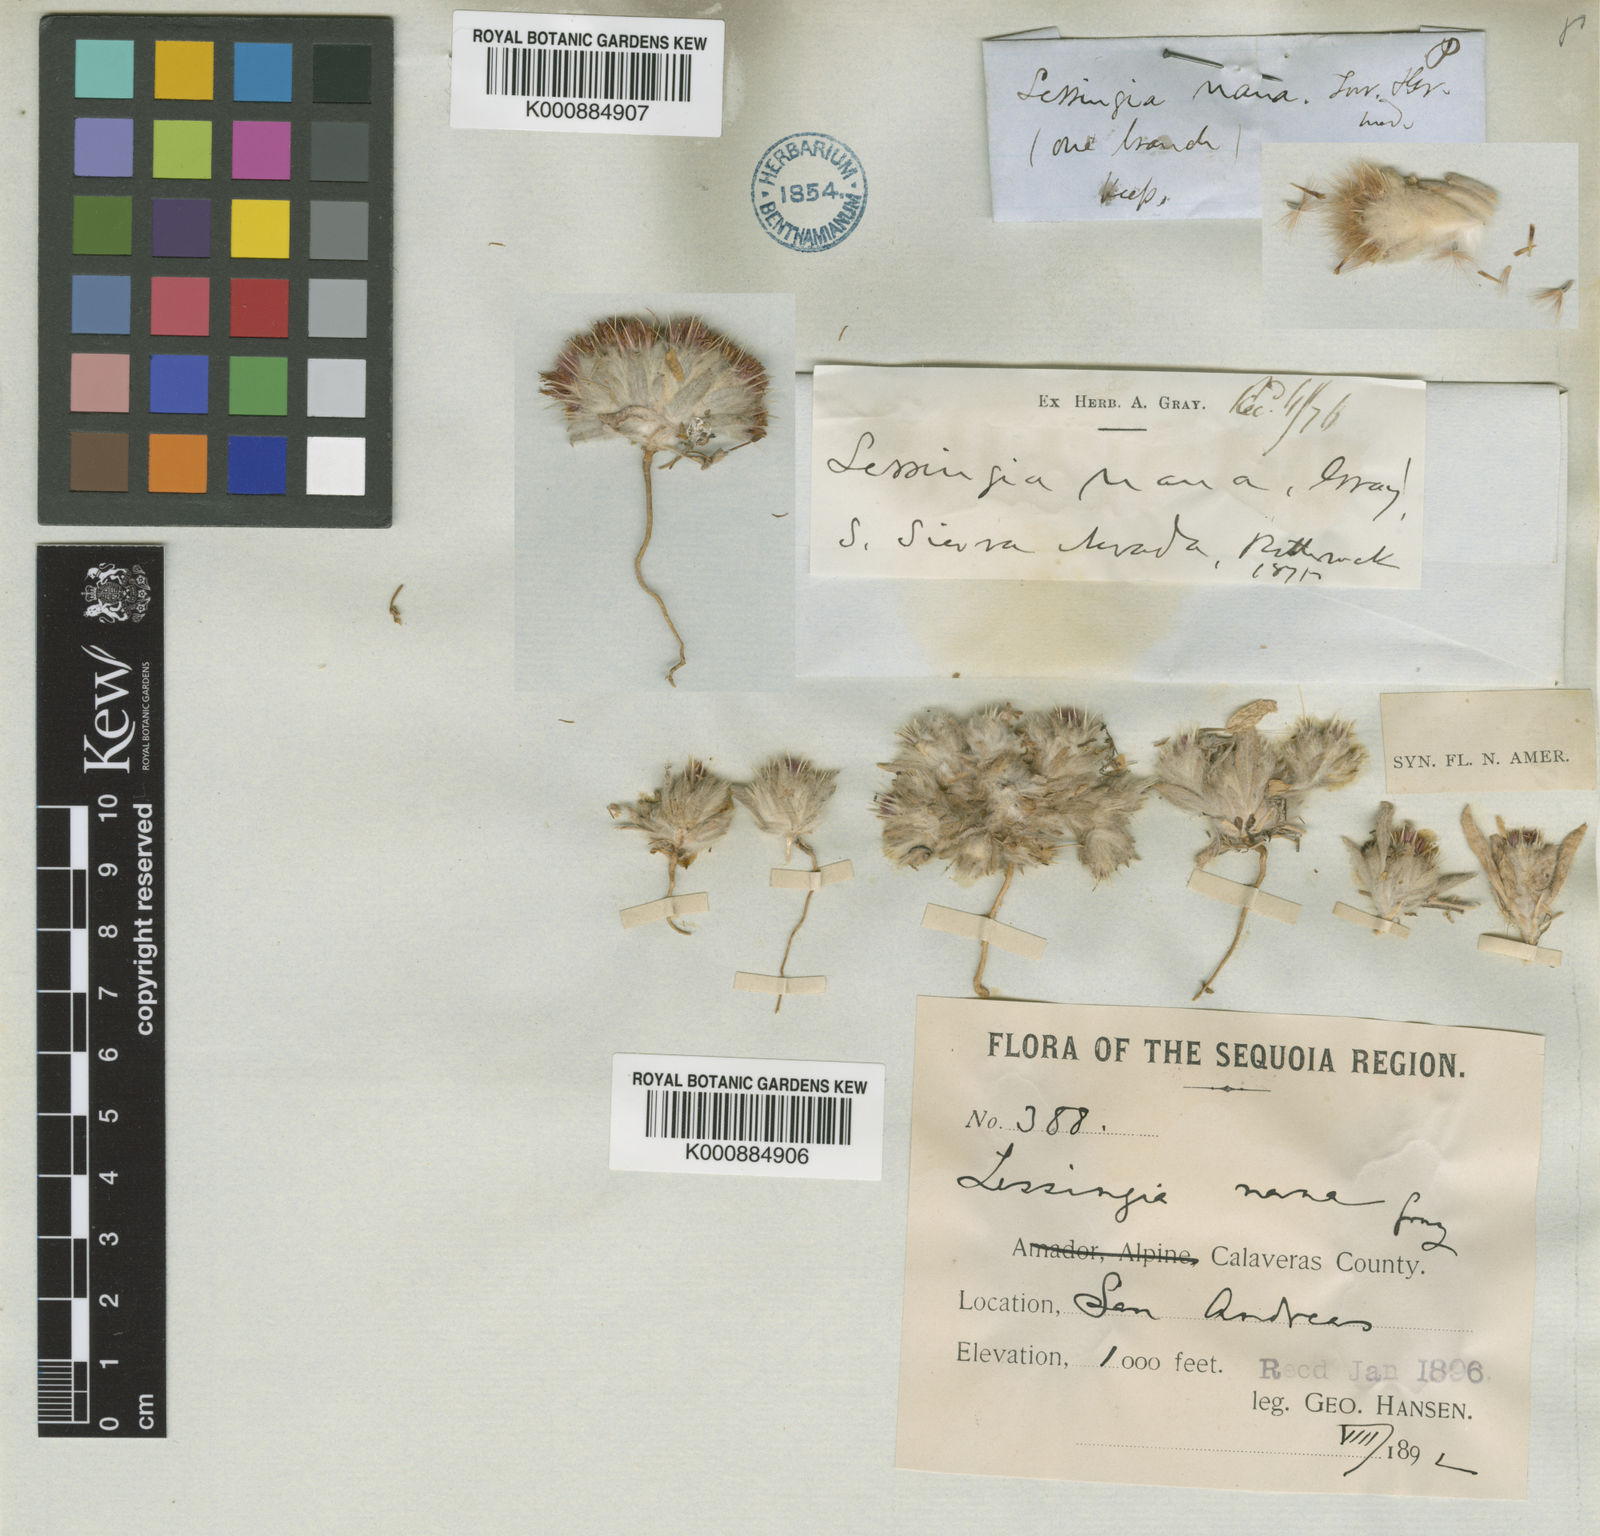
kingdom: Plantae
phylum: Tracheophyta
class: Magnoliopsida
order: Asterales
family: Asteraceae
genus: Lessingia
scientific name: Lessingia
